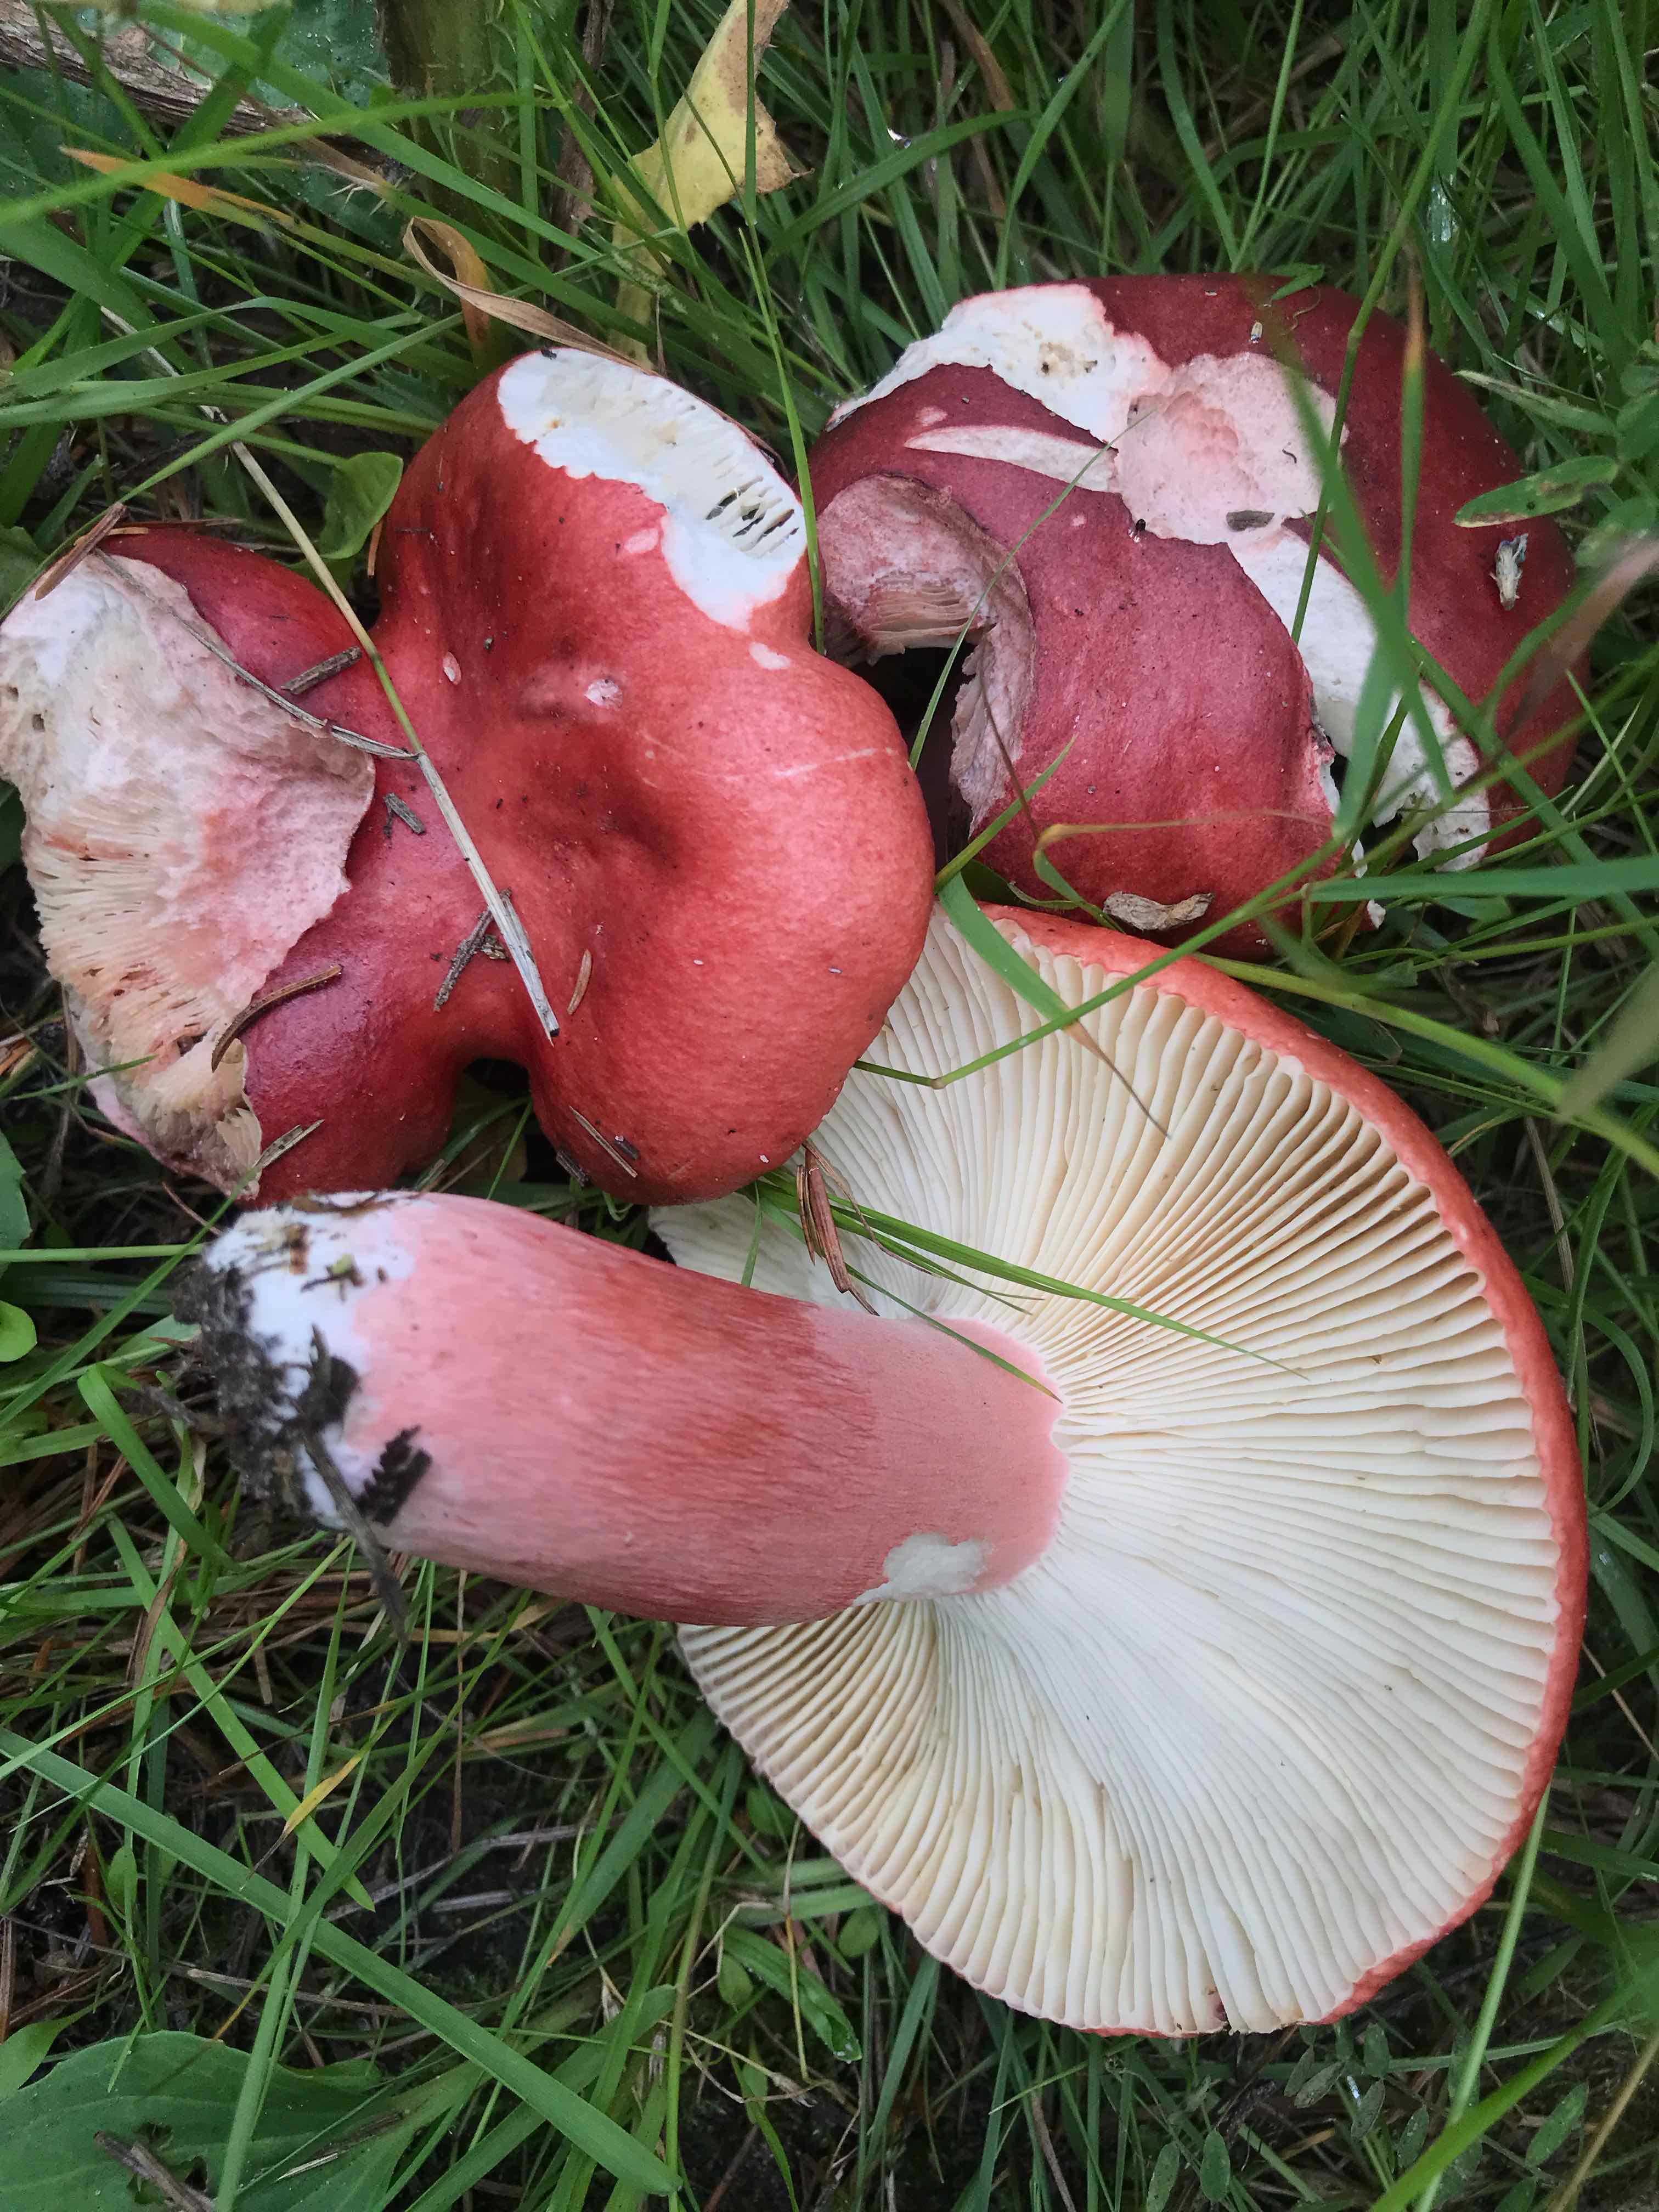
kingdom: Fungi
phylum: Basidiomycota
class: Agaricomycetes
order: Russulales
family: Russulaceae
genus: Russula
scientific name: Russula sanguinea
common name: blodrød skørhat
